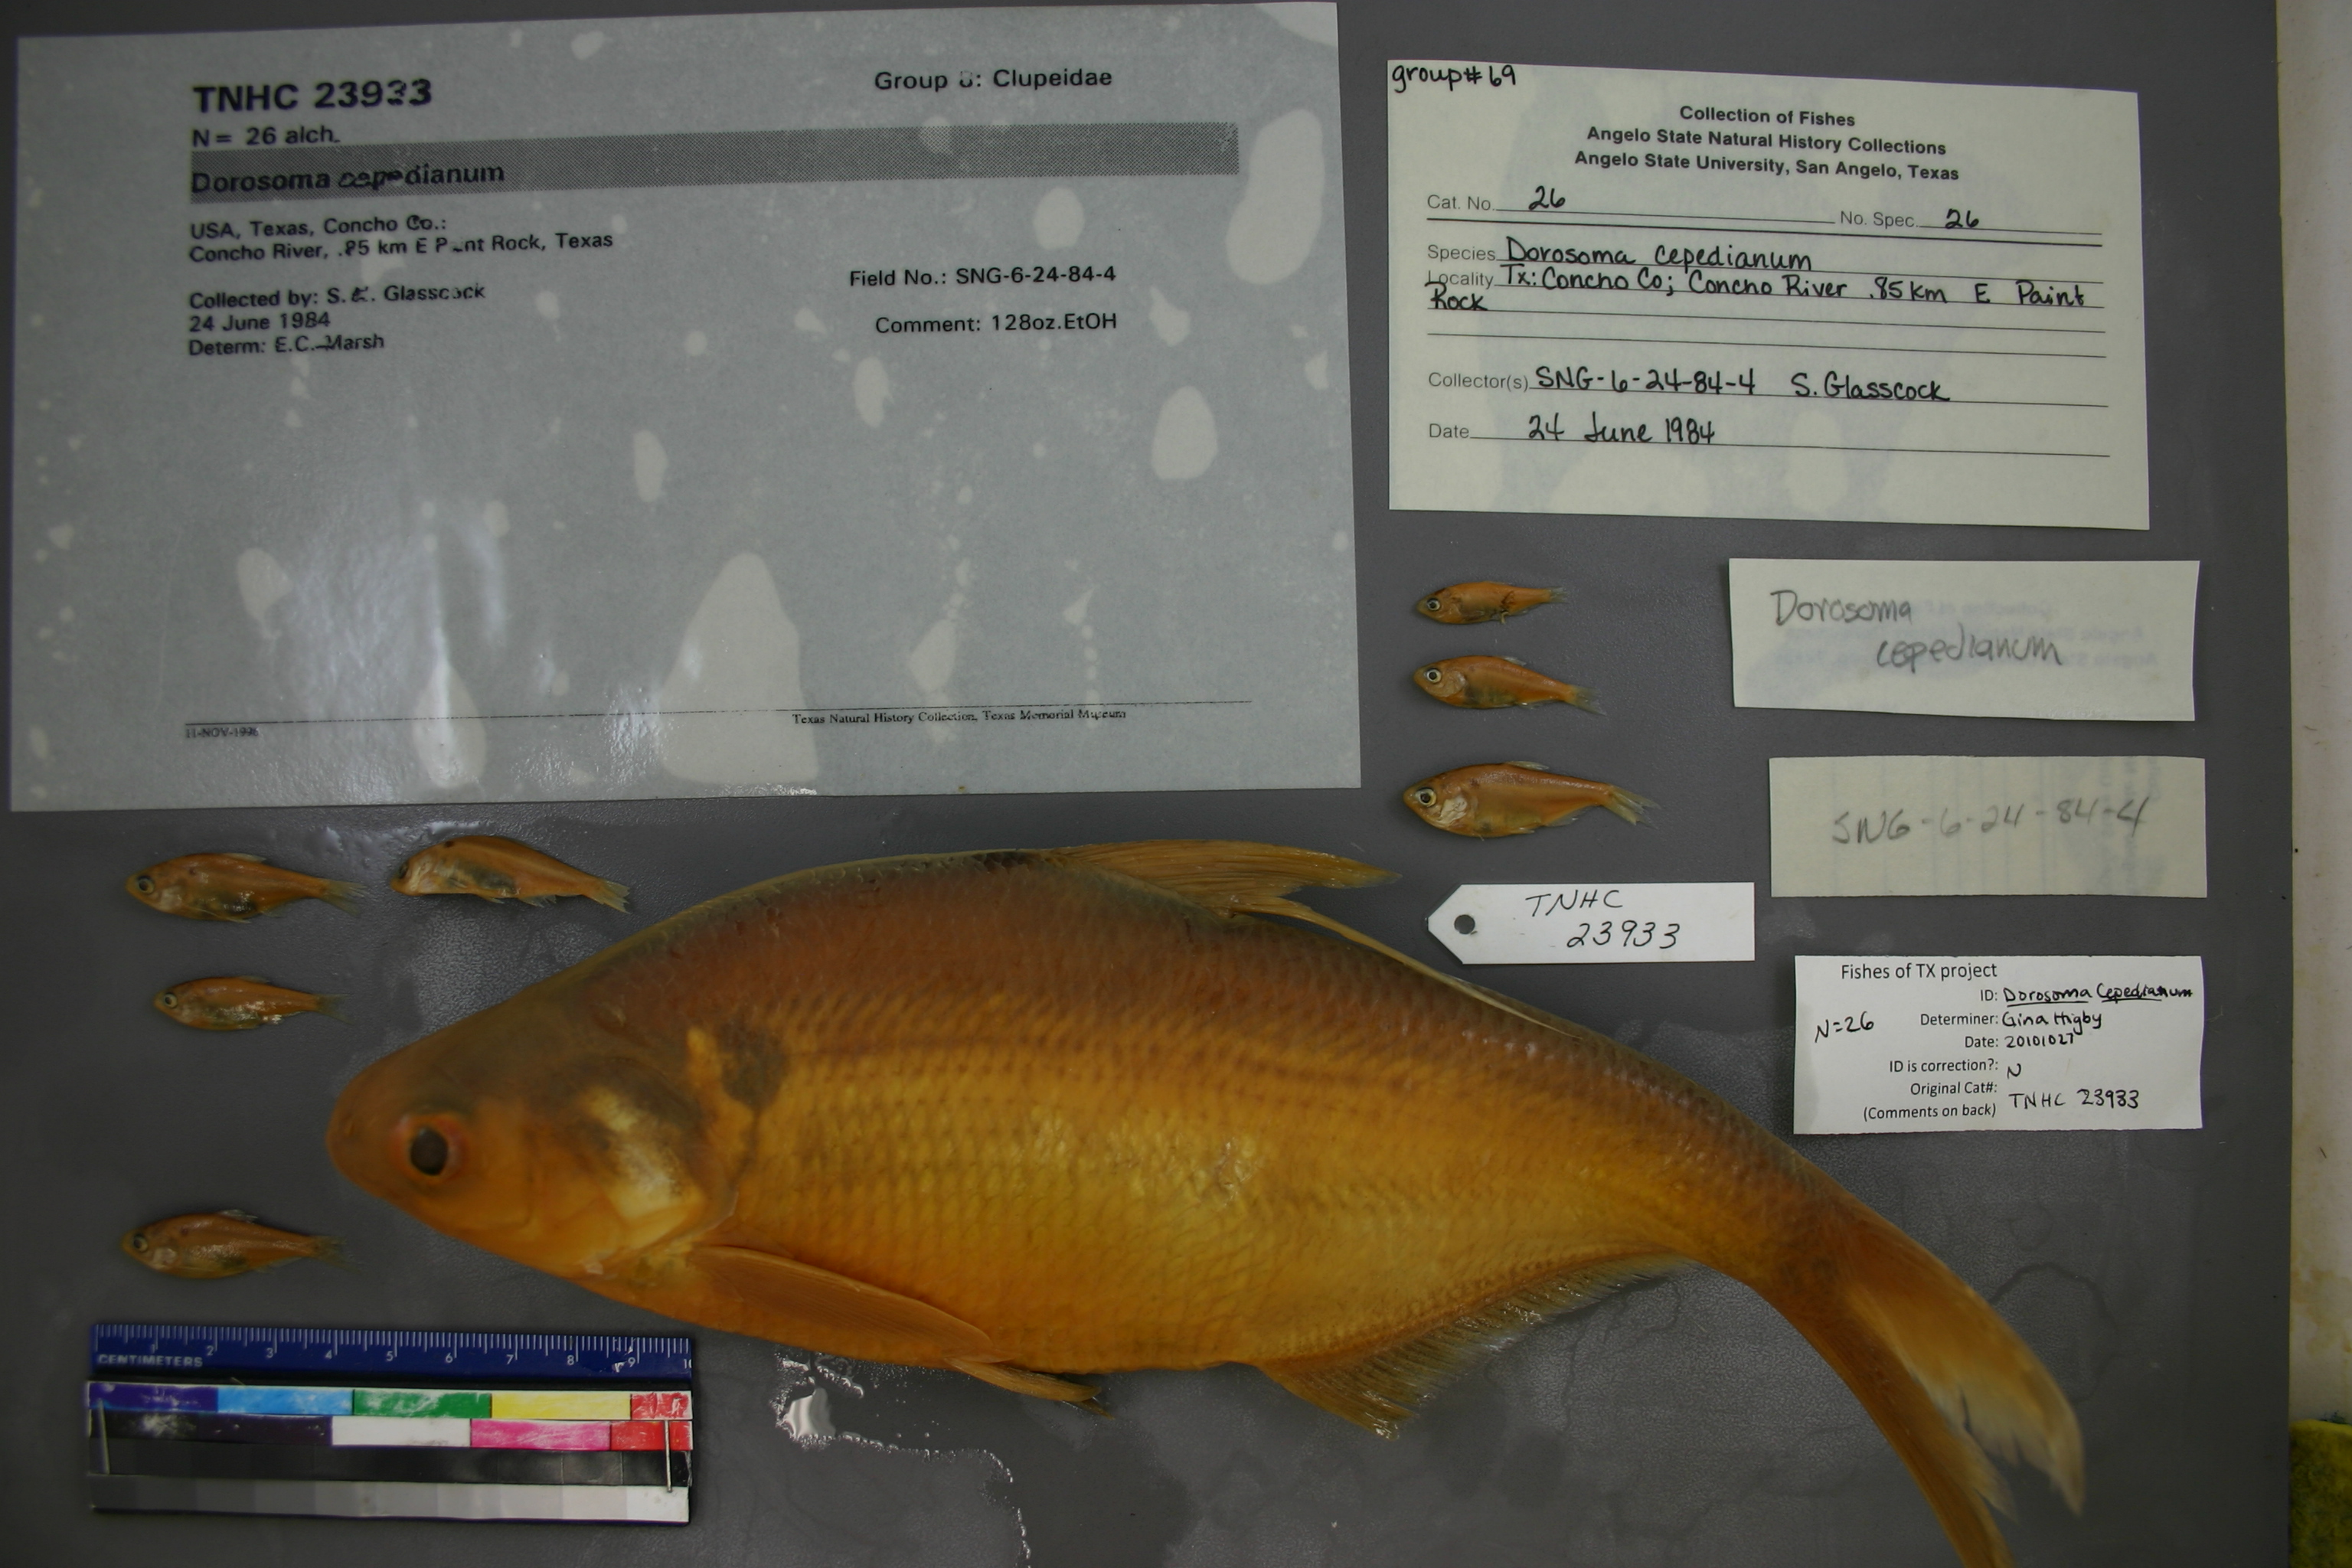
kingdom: Animalia
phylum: Chordata
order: Clupeiformes
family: Clupeidae
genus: Dorosoma
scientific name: Dorosoma cepedianum
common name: Gizzard shad
